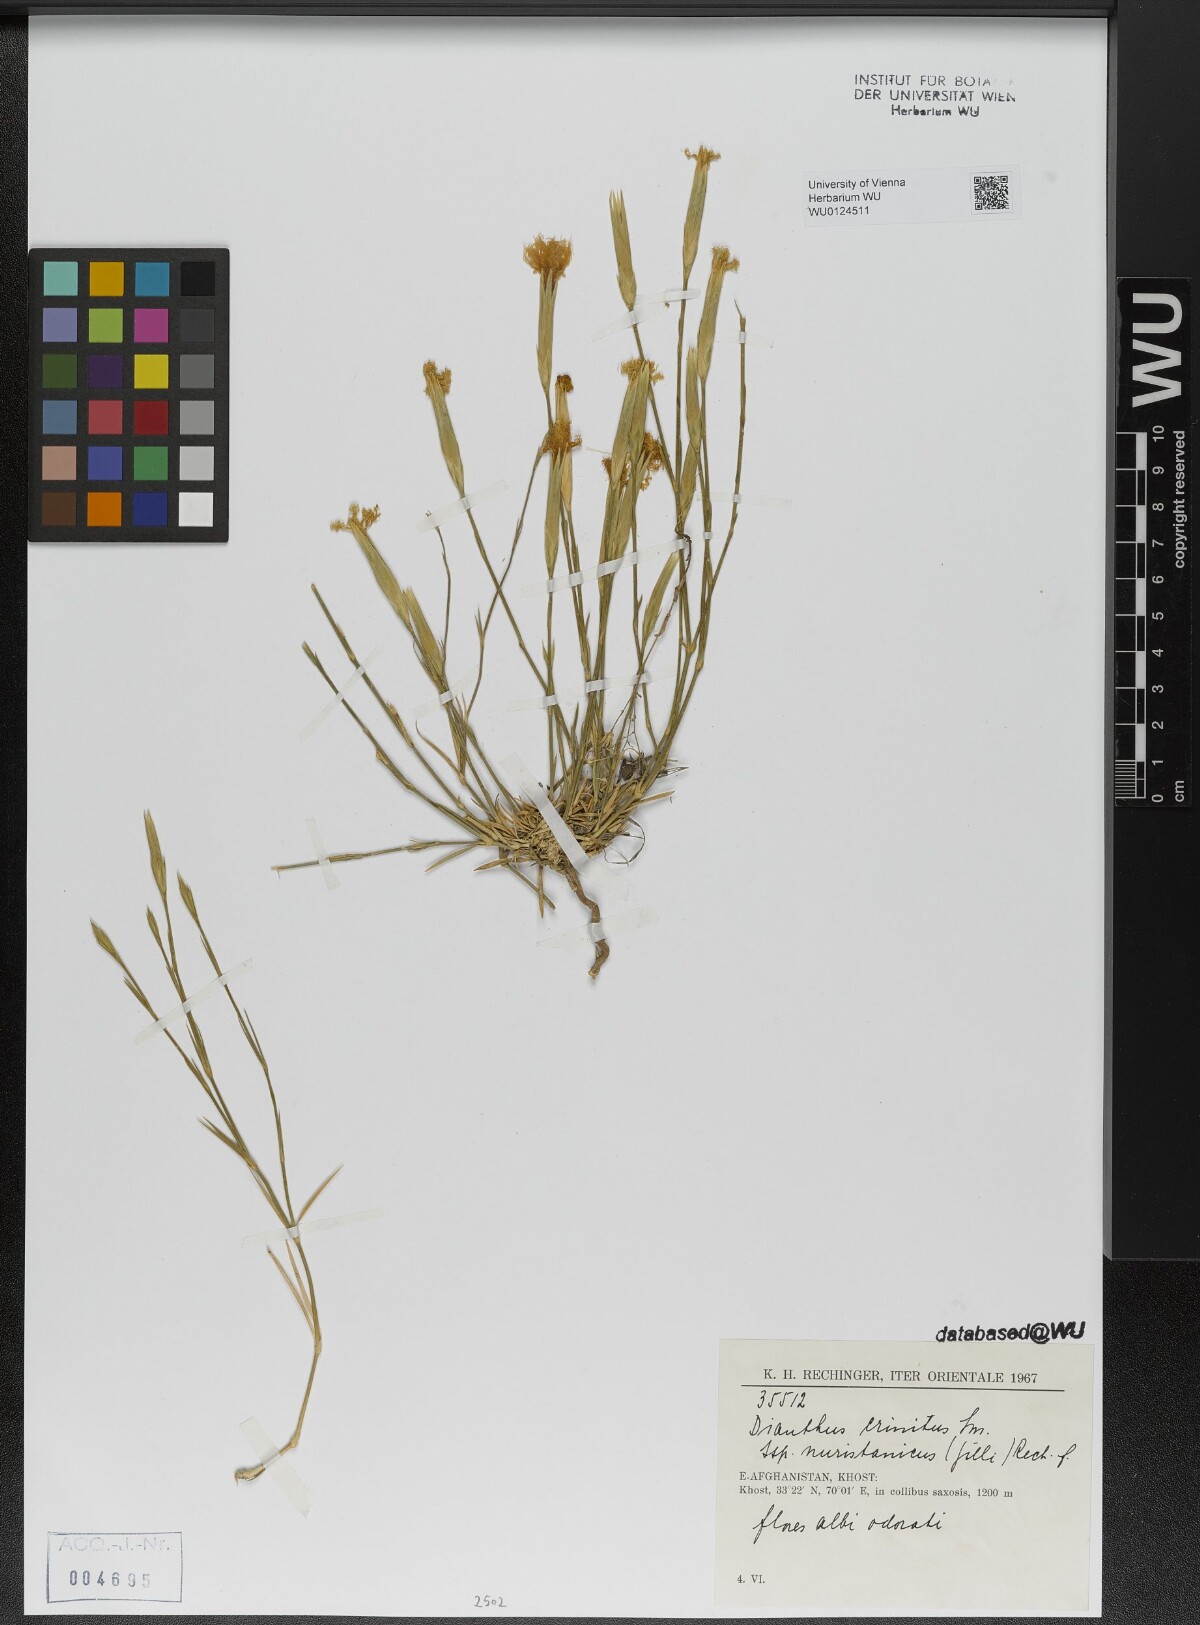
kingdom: Plantae
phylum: Tracheophyta
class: Magnoliopsida
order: Caryophyllales
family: Caryophyllaceae
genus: Dianthus
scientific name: Dianthus crinitus
